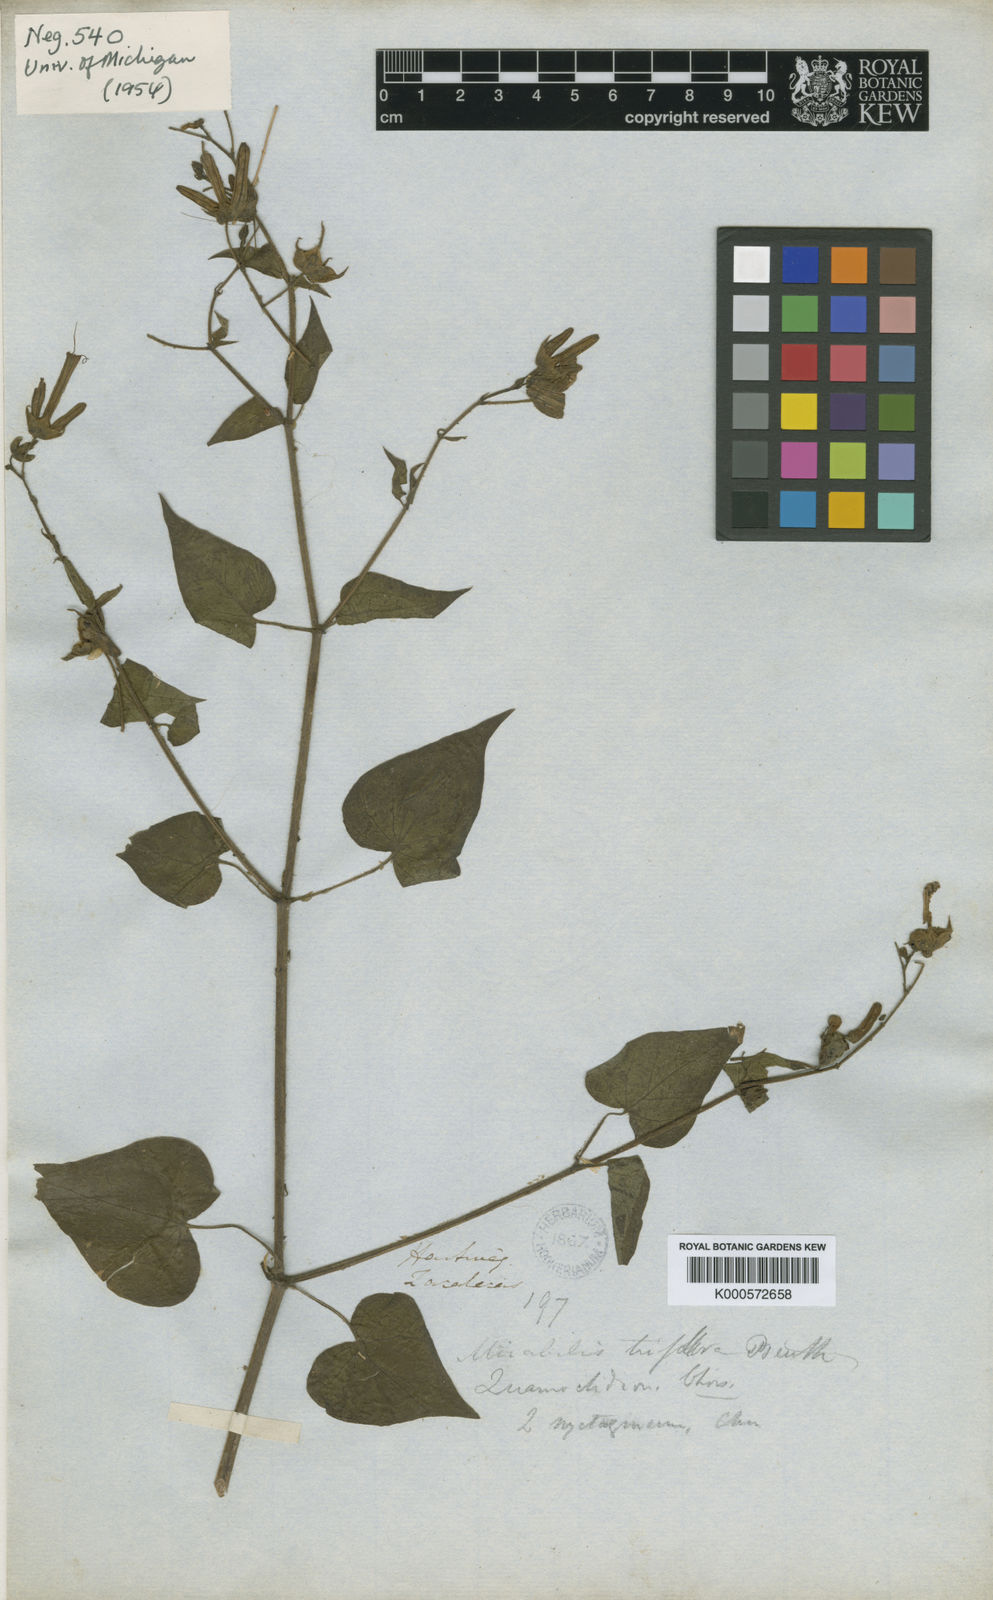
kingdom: Plantae
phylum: Tracheophyta
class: Magnoliopsida
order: Caryophyllales
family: Nyctaginaceae
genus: Mirabilis
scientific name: Mirabilis triflora
